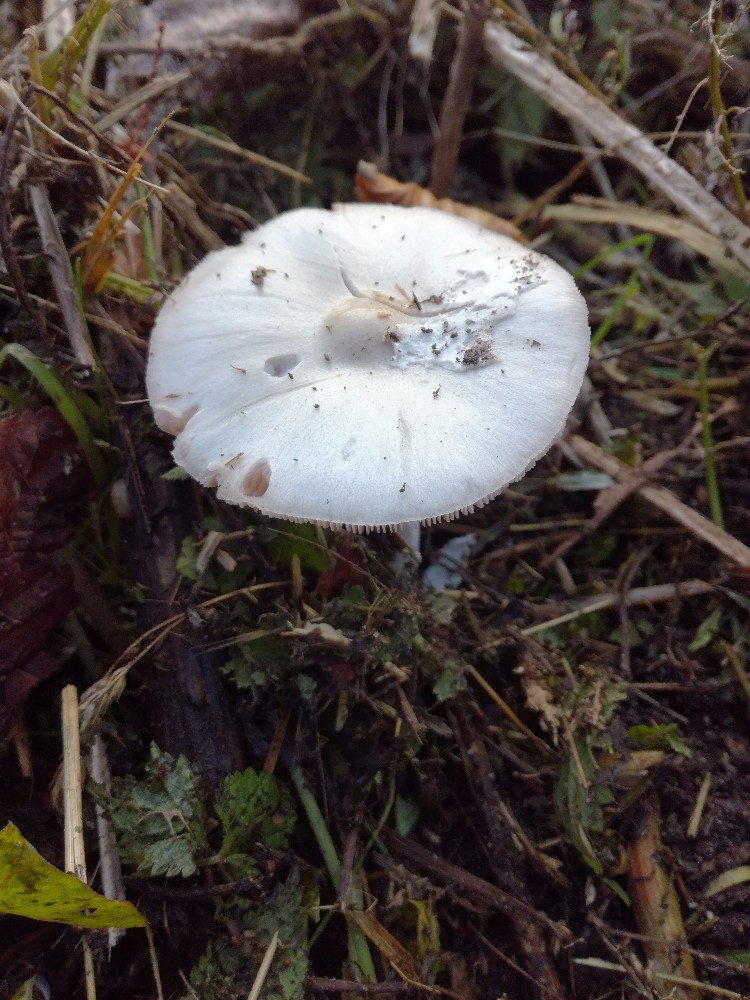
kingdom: Fungi
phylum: Basidiomycota
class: Agaricomycetes
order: Agaricales
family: Pluteaceae
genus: Volvopluteus
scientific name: Volvopluteus gloiocephalus
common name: høj posesvamp
